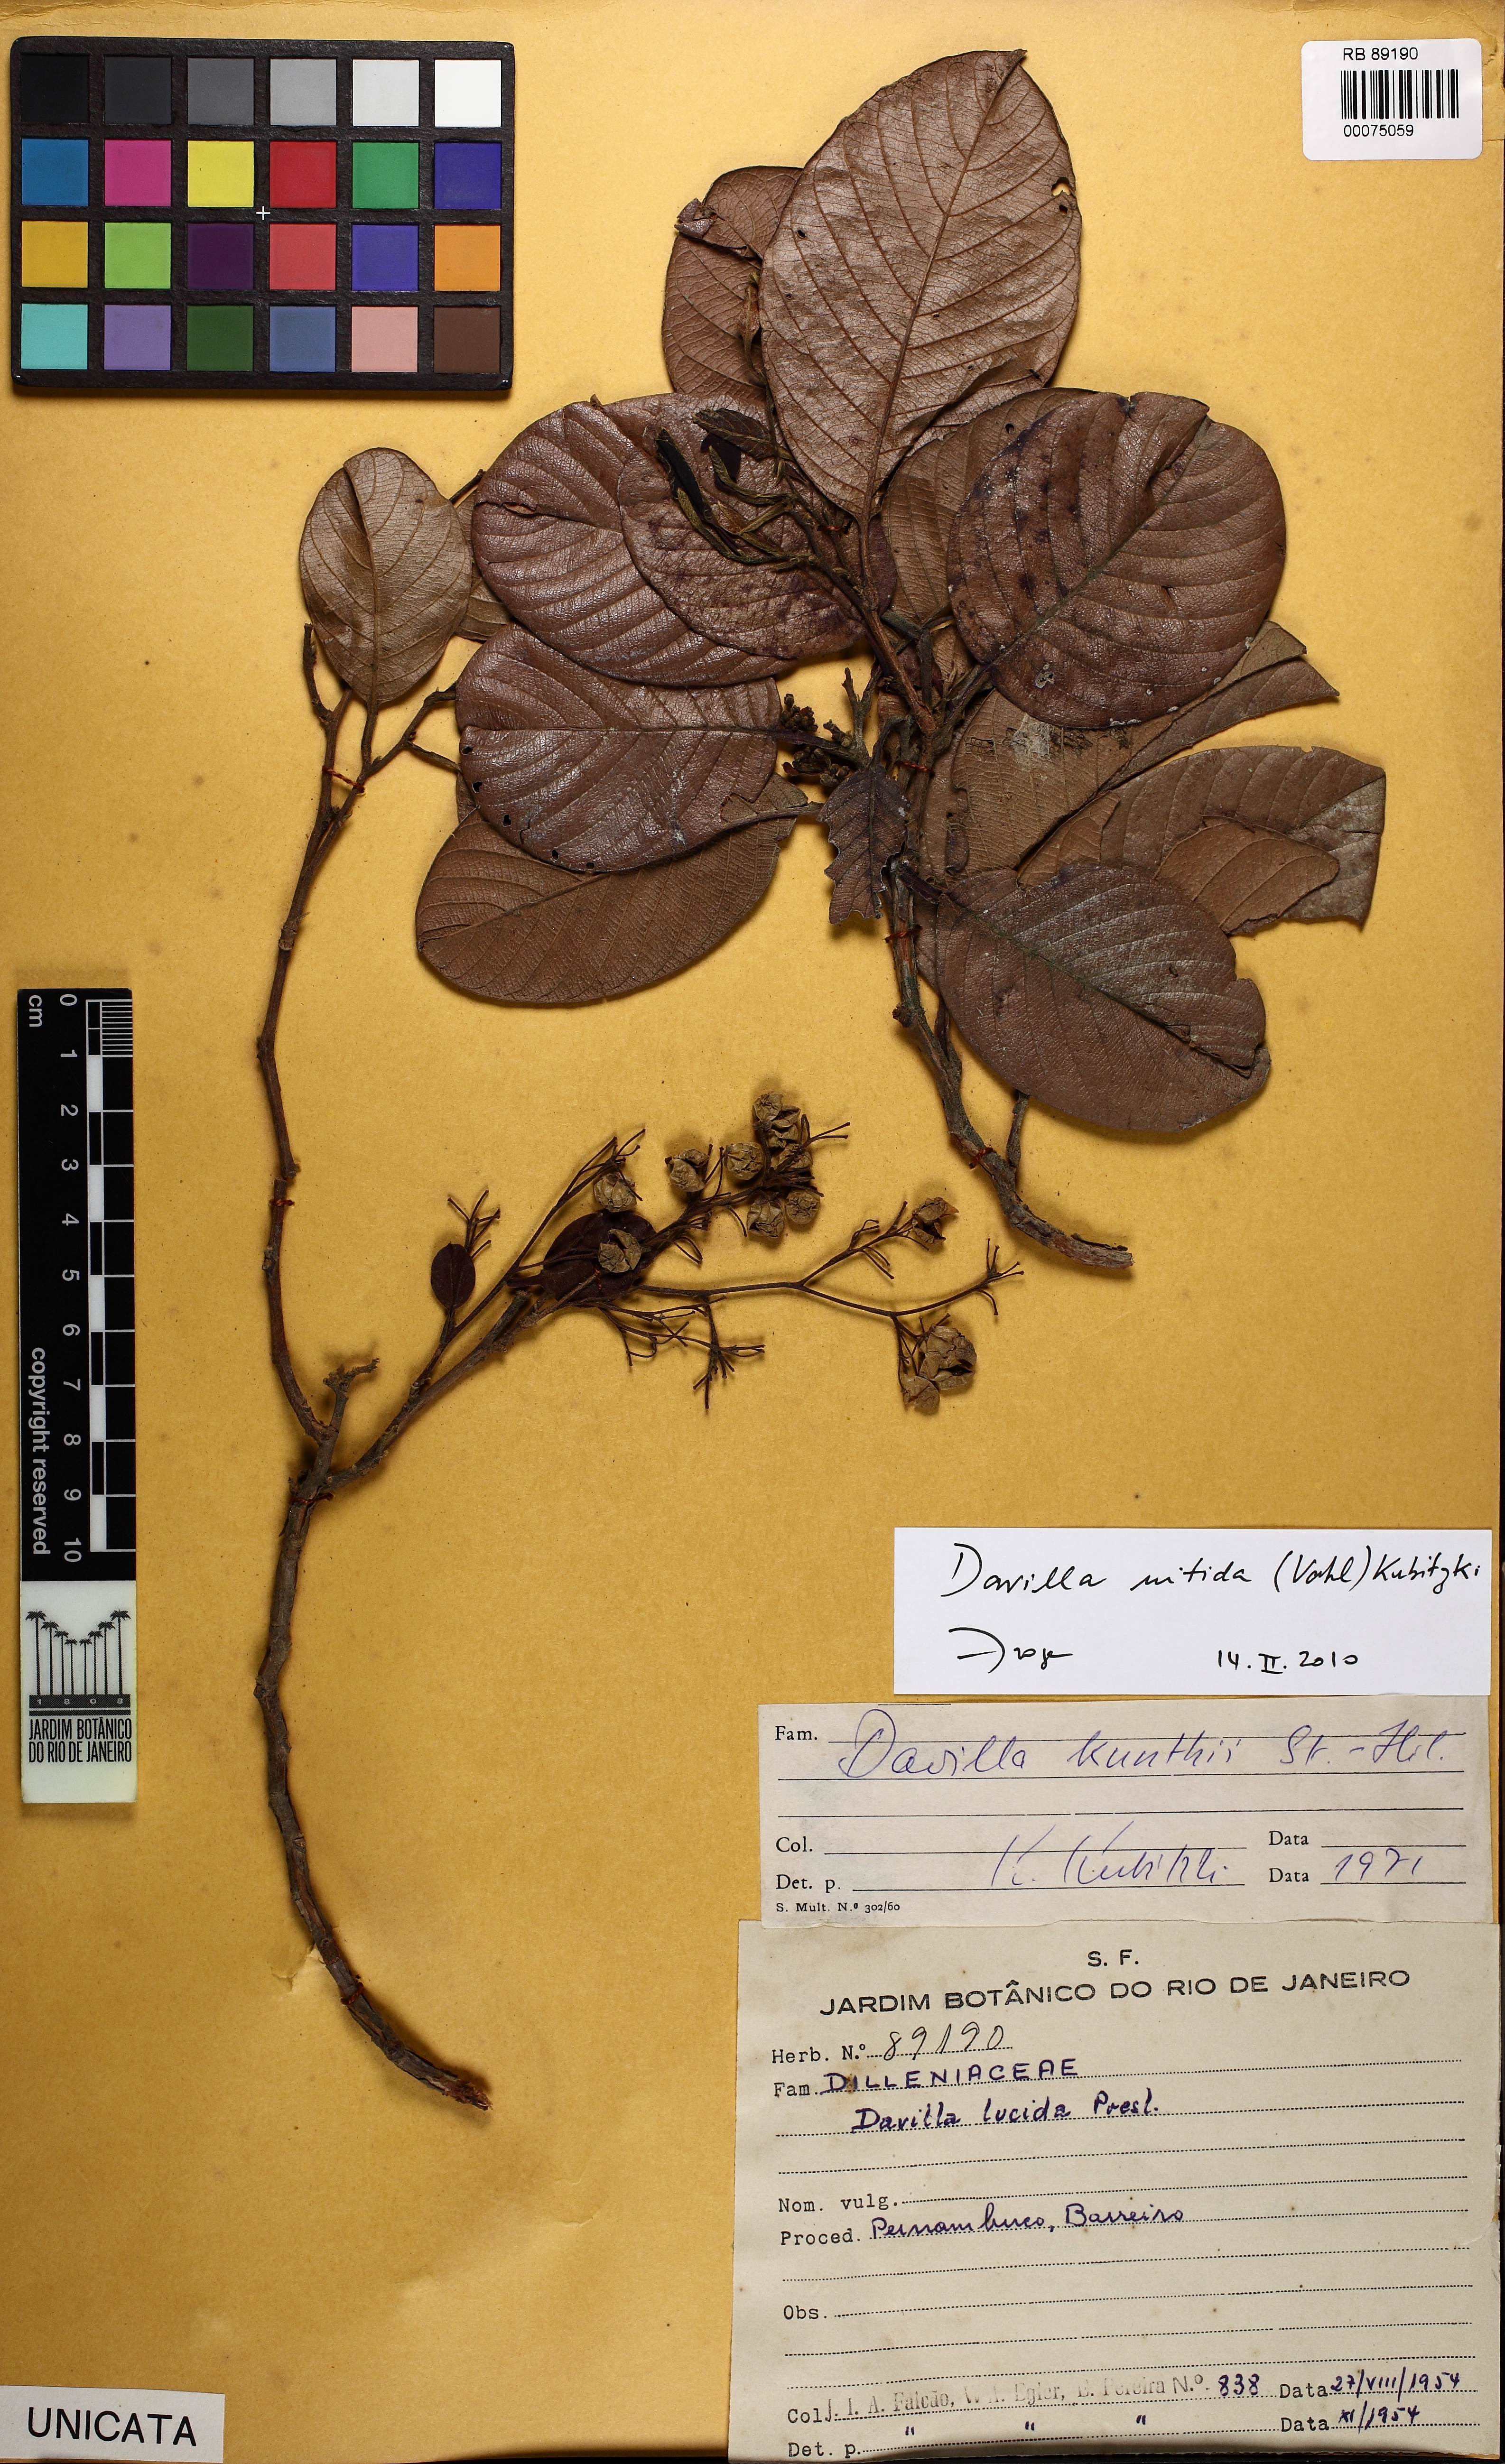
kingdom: Plantae
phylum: Tracheophyta
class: Magnoliopsida
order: Dilleniales
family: Dilleniaceae
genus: Davilla
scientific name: Davilla nitida
